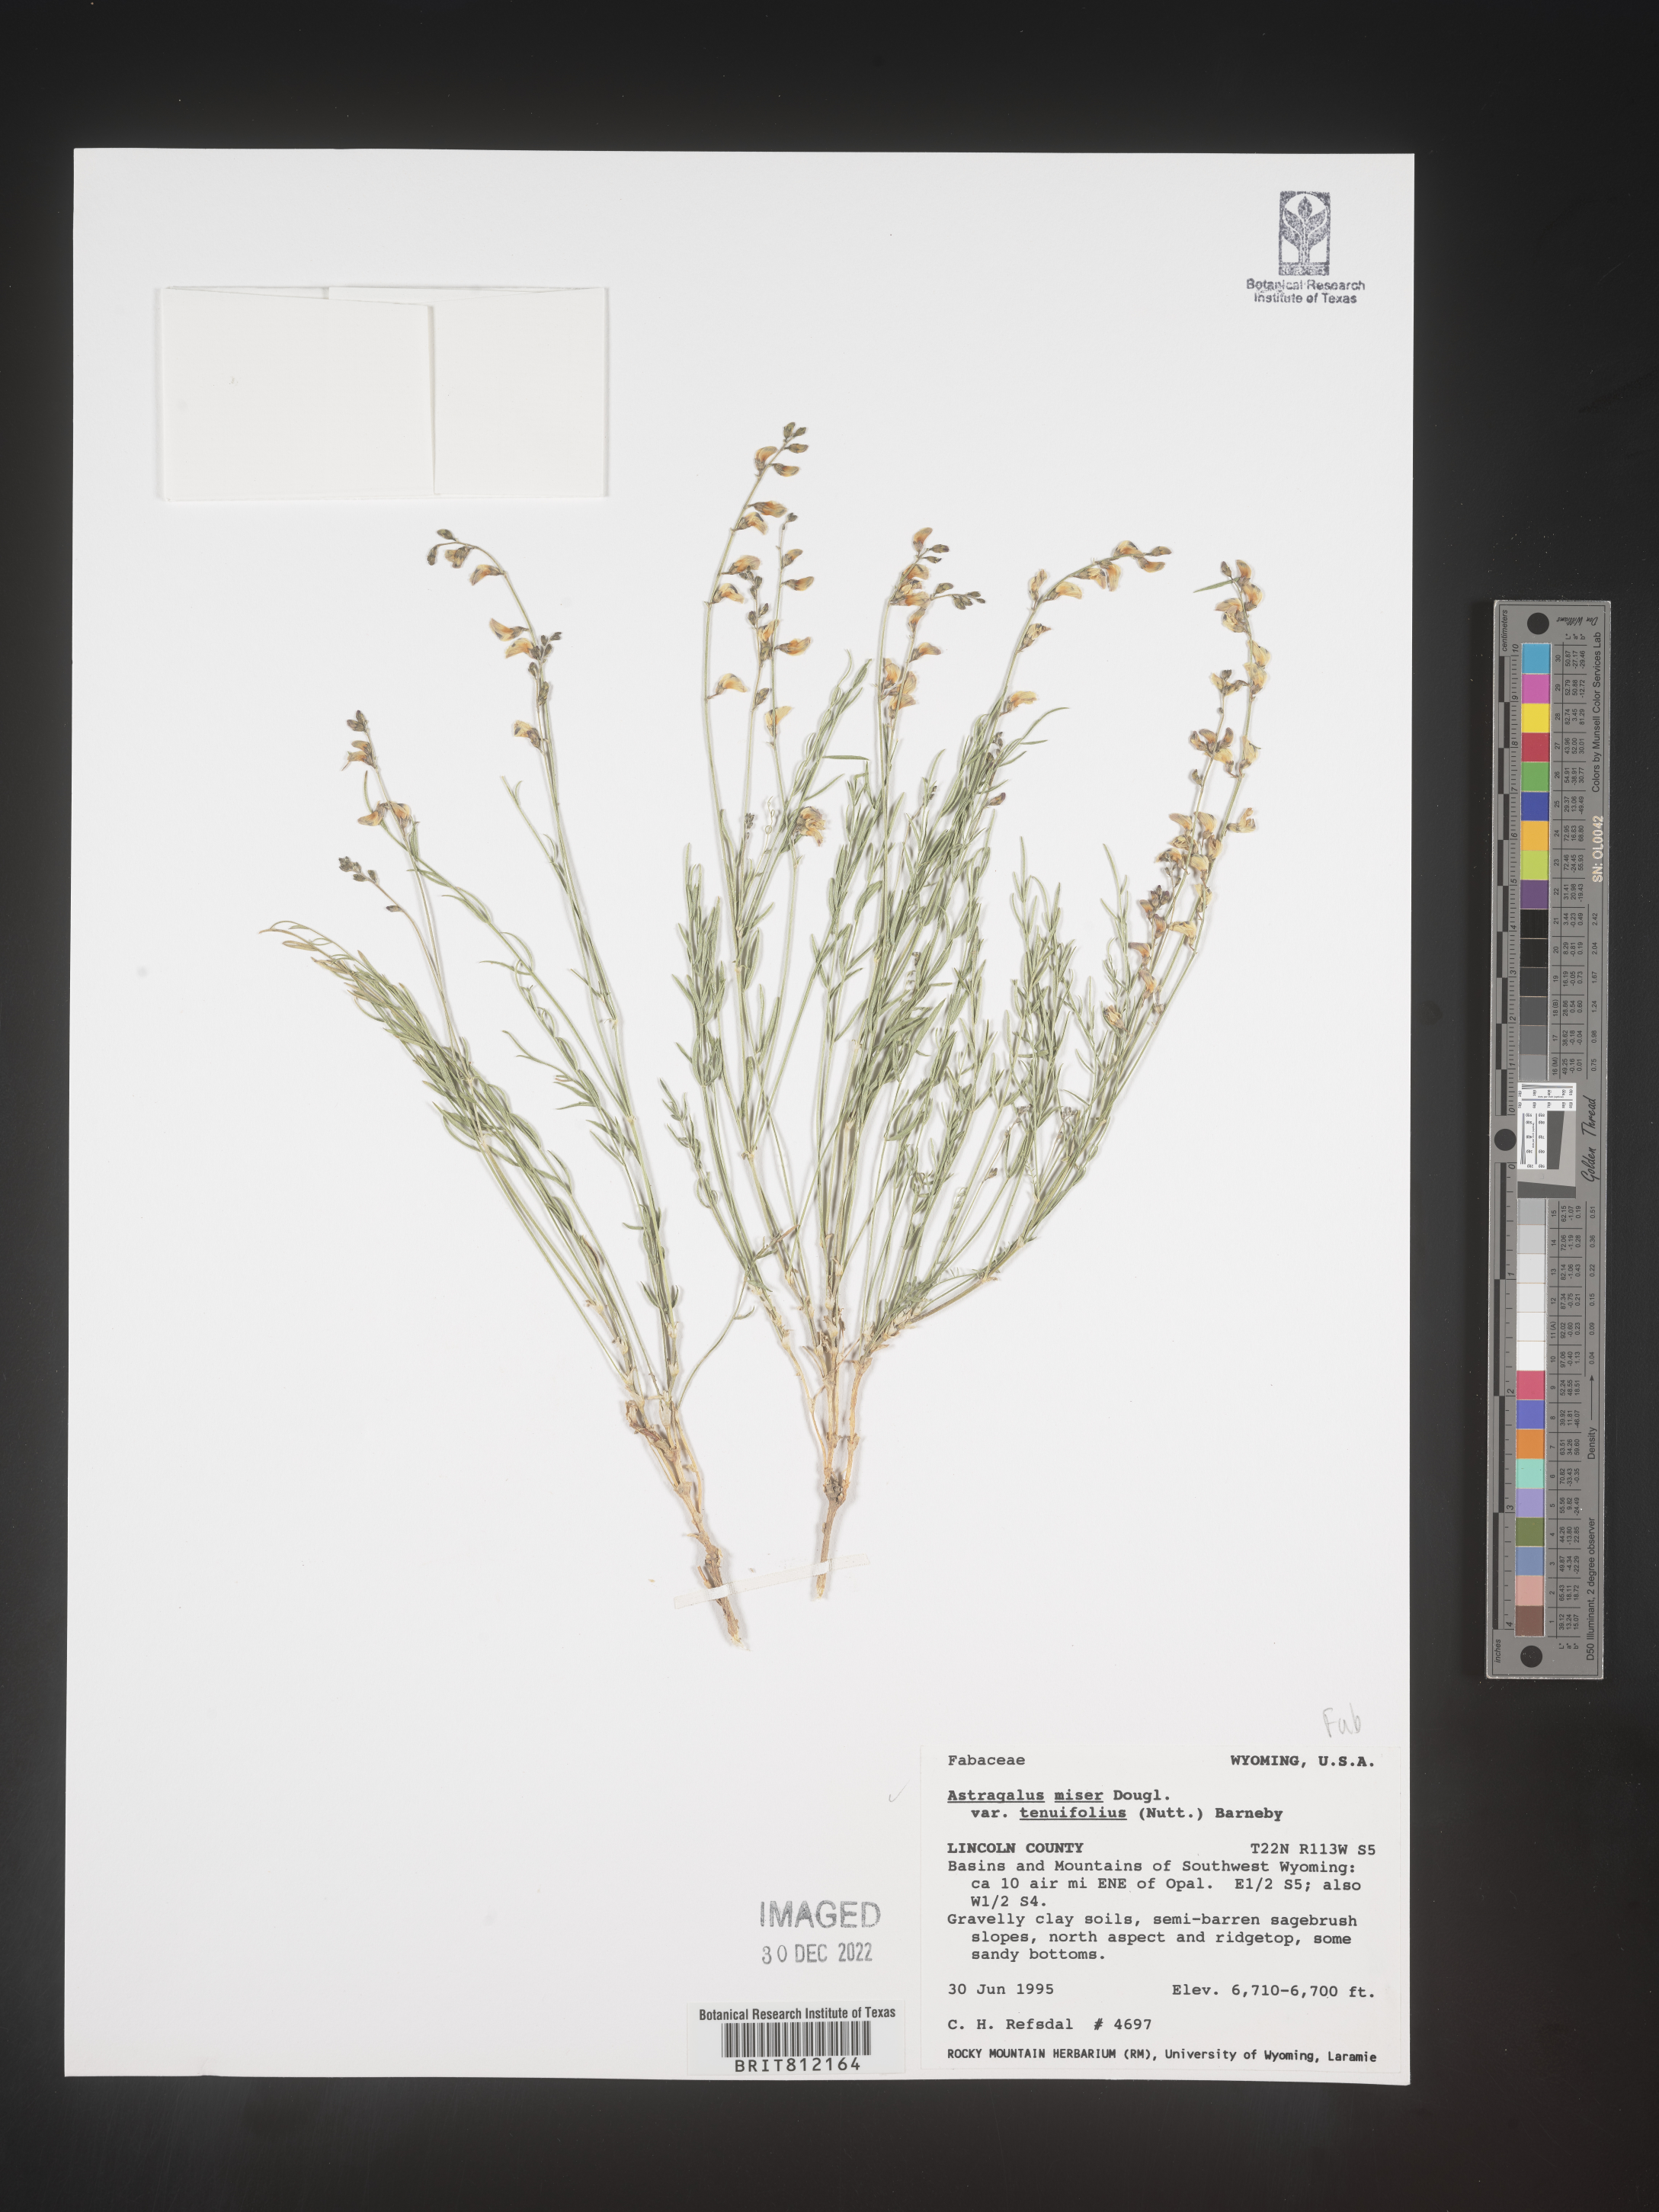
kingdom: Plantae
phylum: Tracheophyta
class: Magnoliopsida
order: Fabales
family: Fabaceae
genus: Astragalus
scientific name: Astragalus miser
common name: Timber milkvetch
